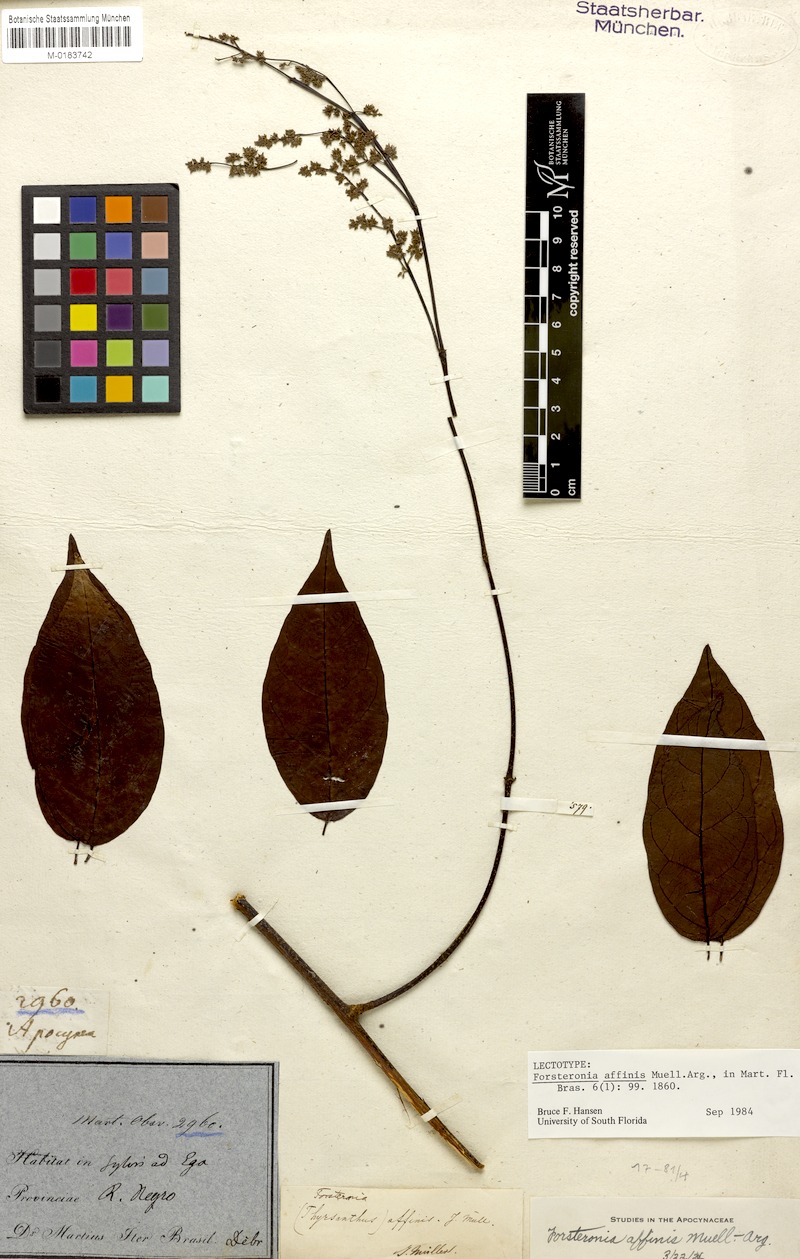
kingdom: Plantae
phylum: Tracheophyta
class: Magnoliopsida
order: Gentianales
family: Apocynaceae
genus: Forsteronia
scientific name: Forsteronia affinis
